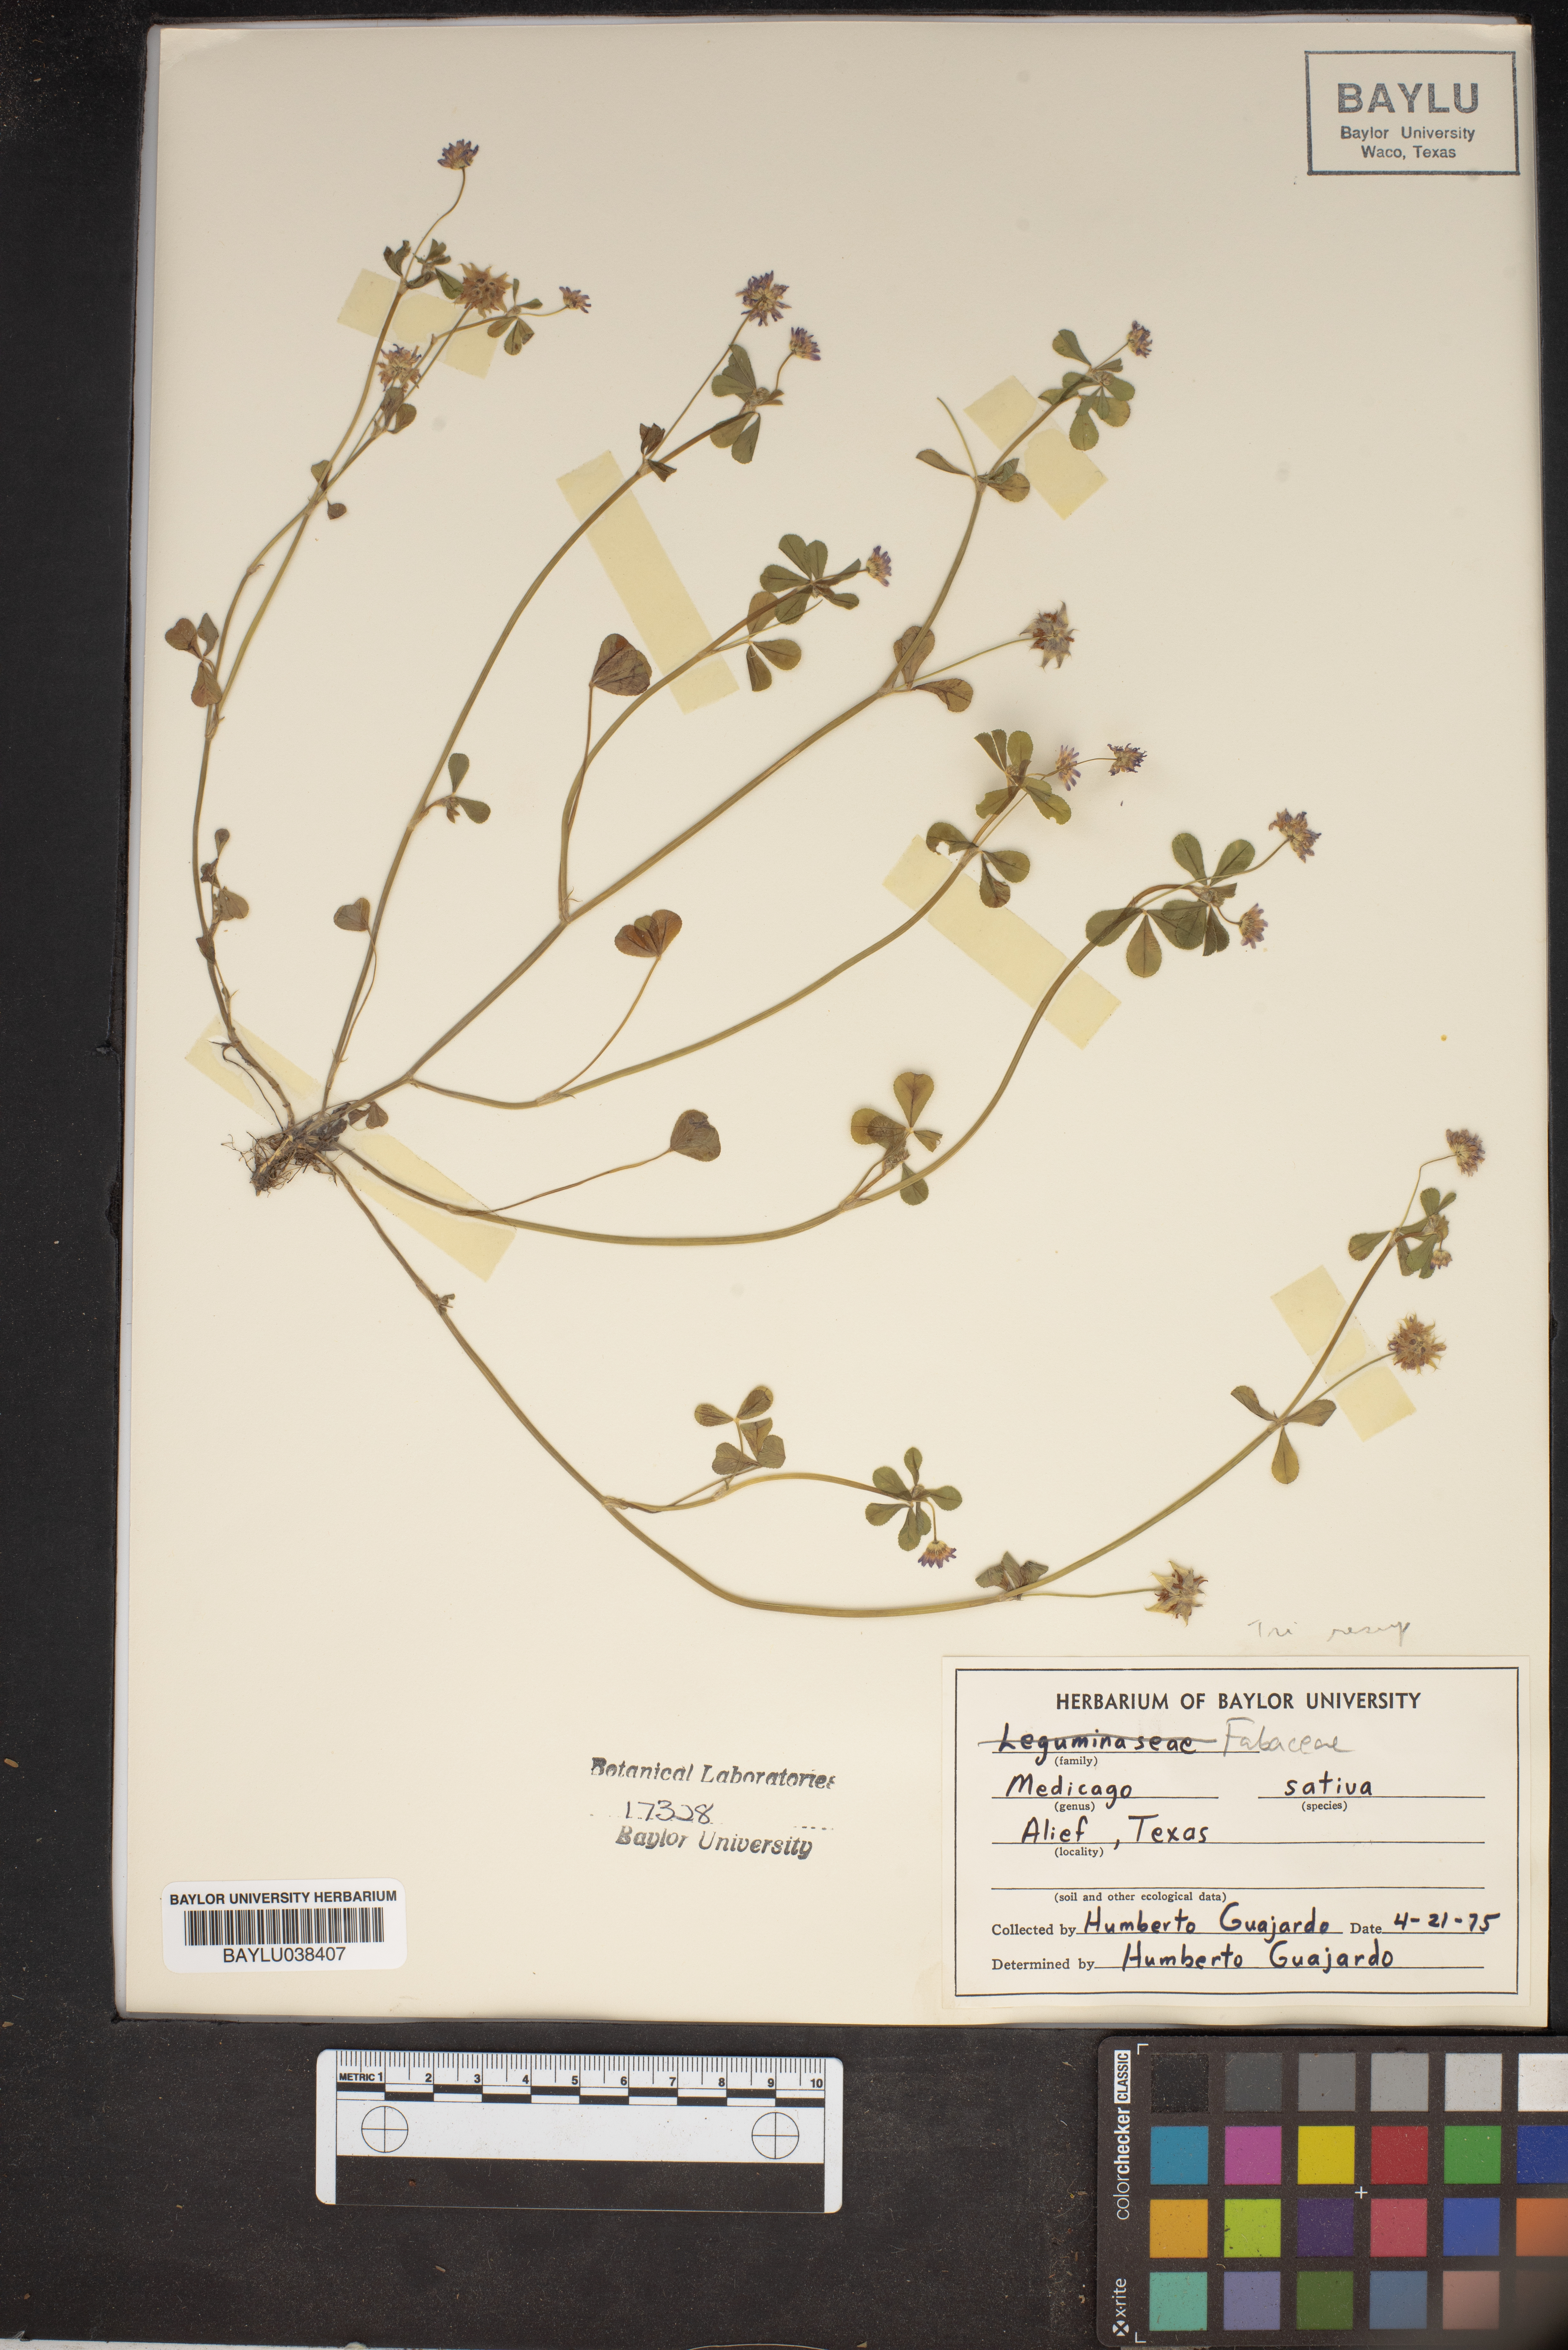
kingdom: Plantae
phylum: Tracheophyta
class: Magnoliopsida
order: Fabales
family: Fabaceae
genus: Medicago
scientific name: Medicago sativa
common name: Alfalfa
